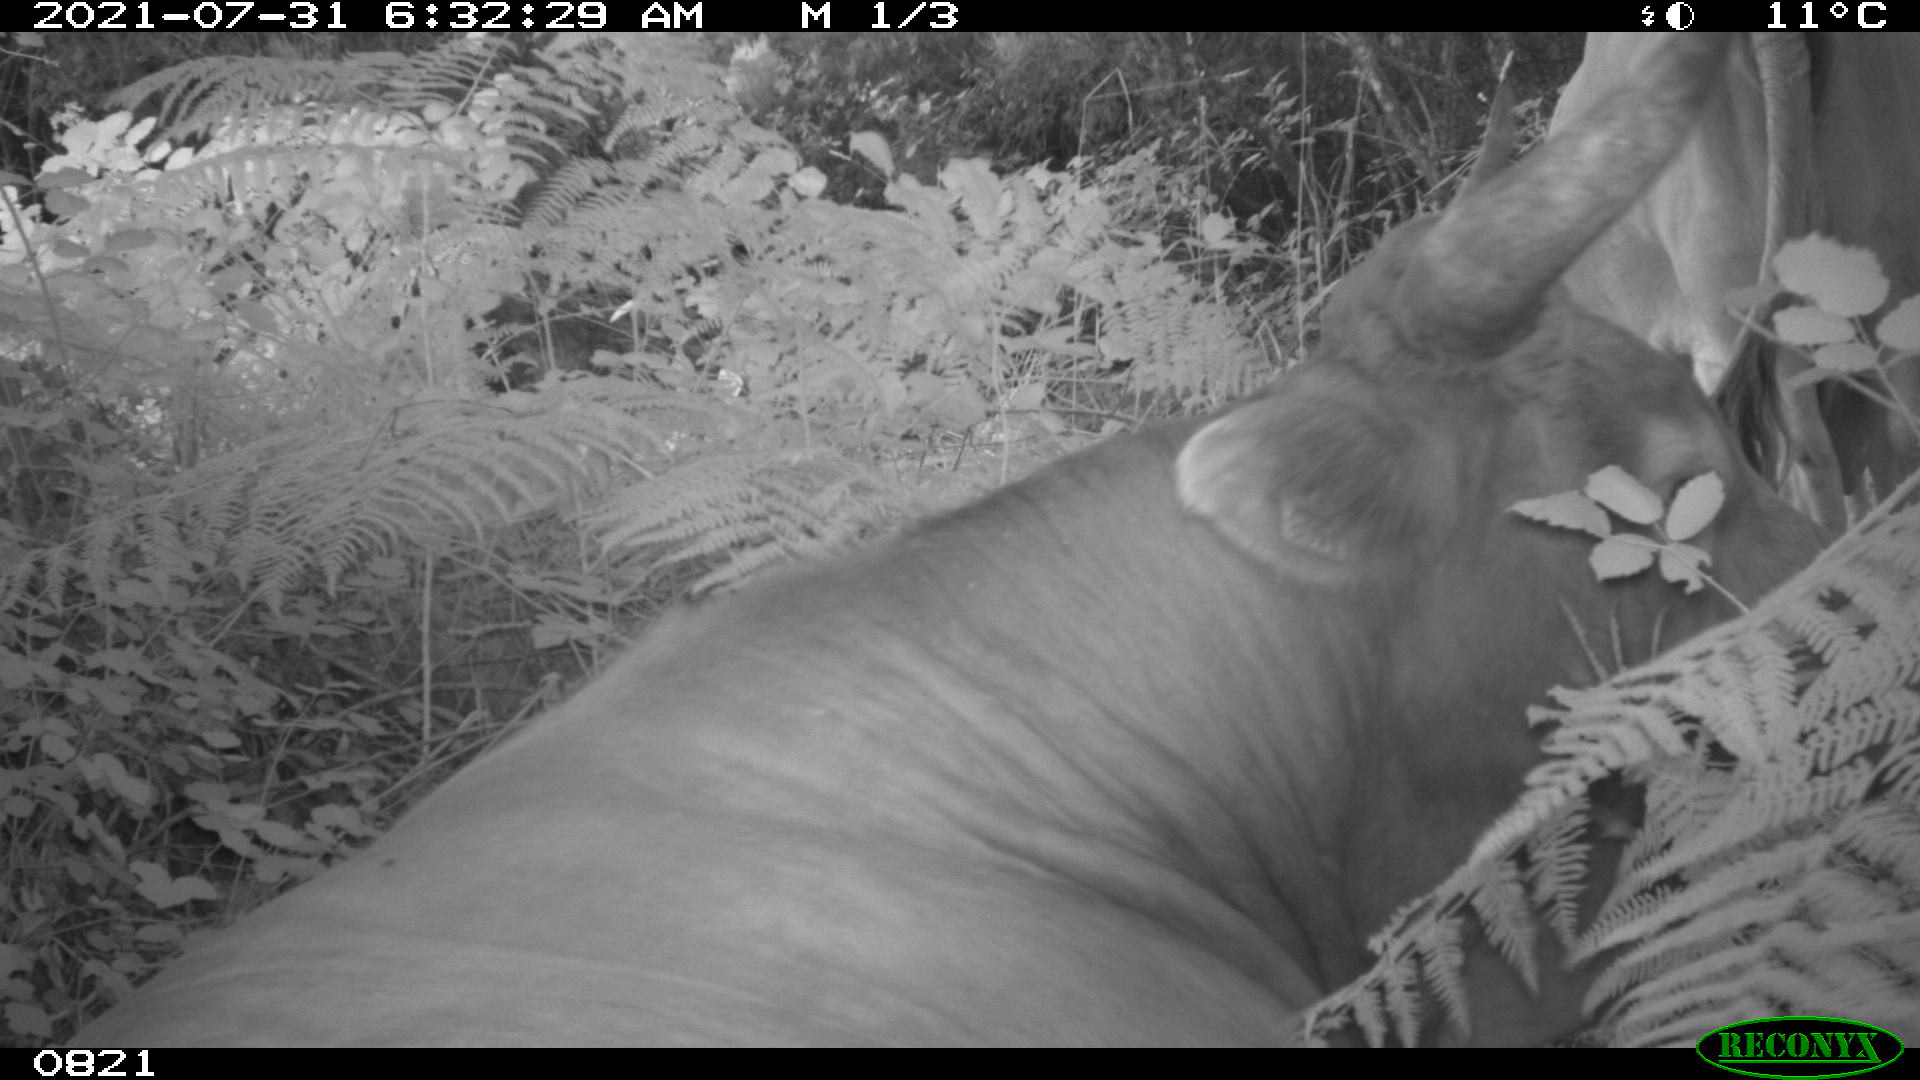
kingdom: Animalia
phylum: Chordata
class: Mammalia
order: Artiodactyla
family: Bovidae
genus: Bos
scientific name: Bos taurus
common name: Domesticated cattle
